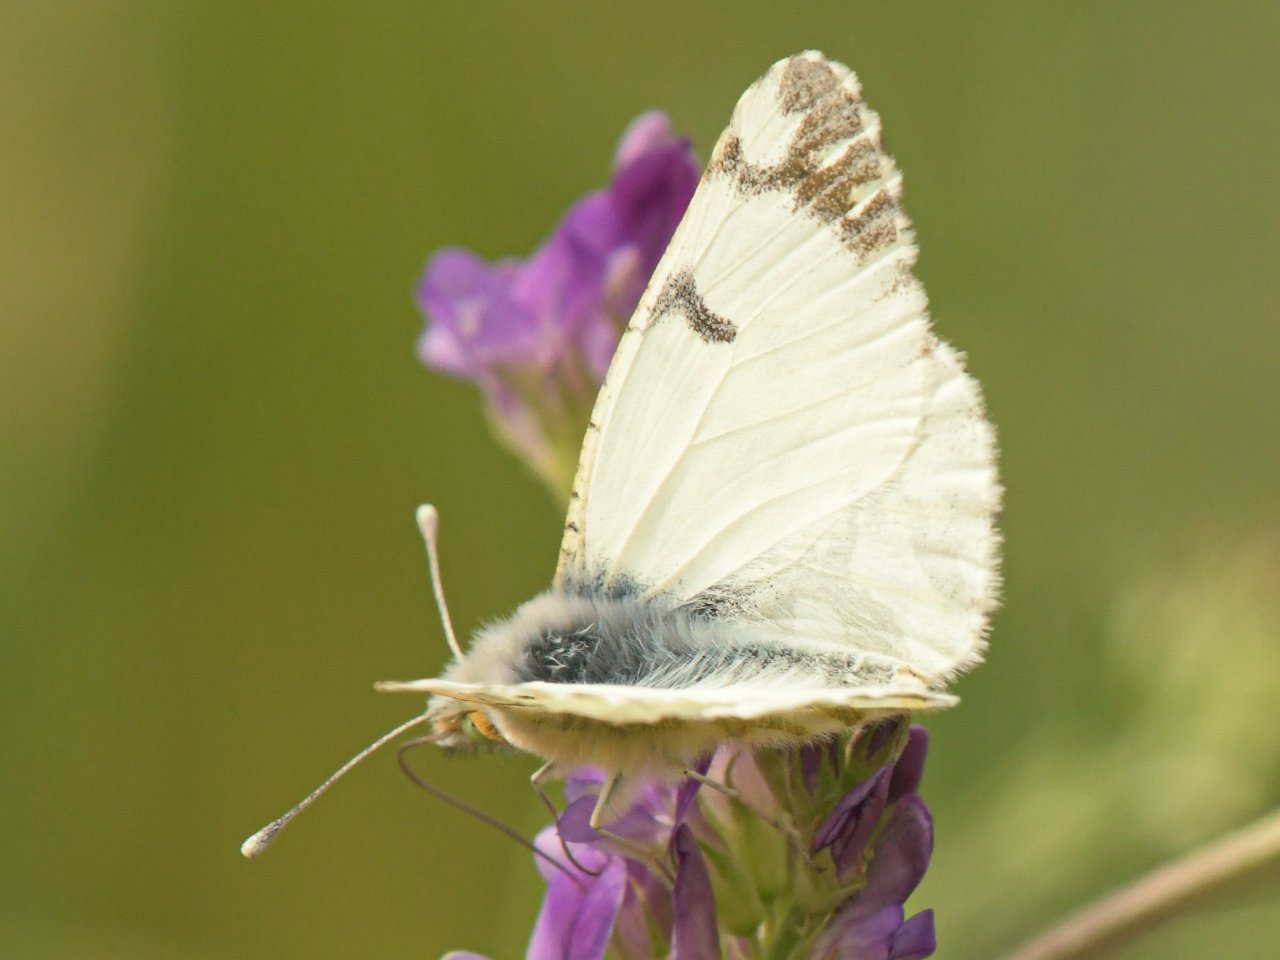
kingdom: Animalia
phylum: Arthropoda
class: Insecta
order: Lepidoptera
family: Pieridae
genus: Euchloe
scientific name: Euchloe ausonides
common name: Large Marble
